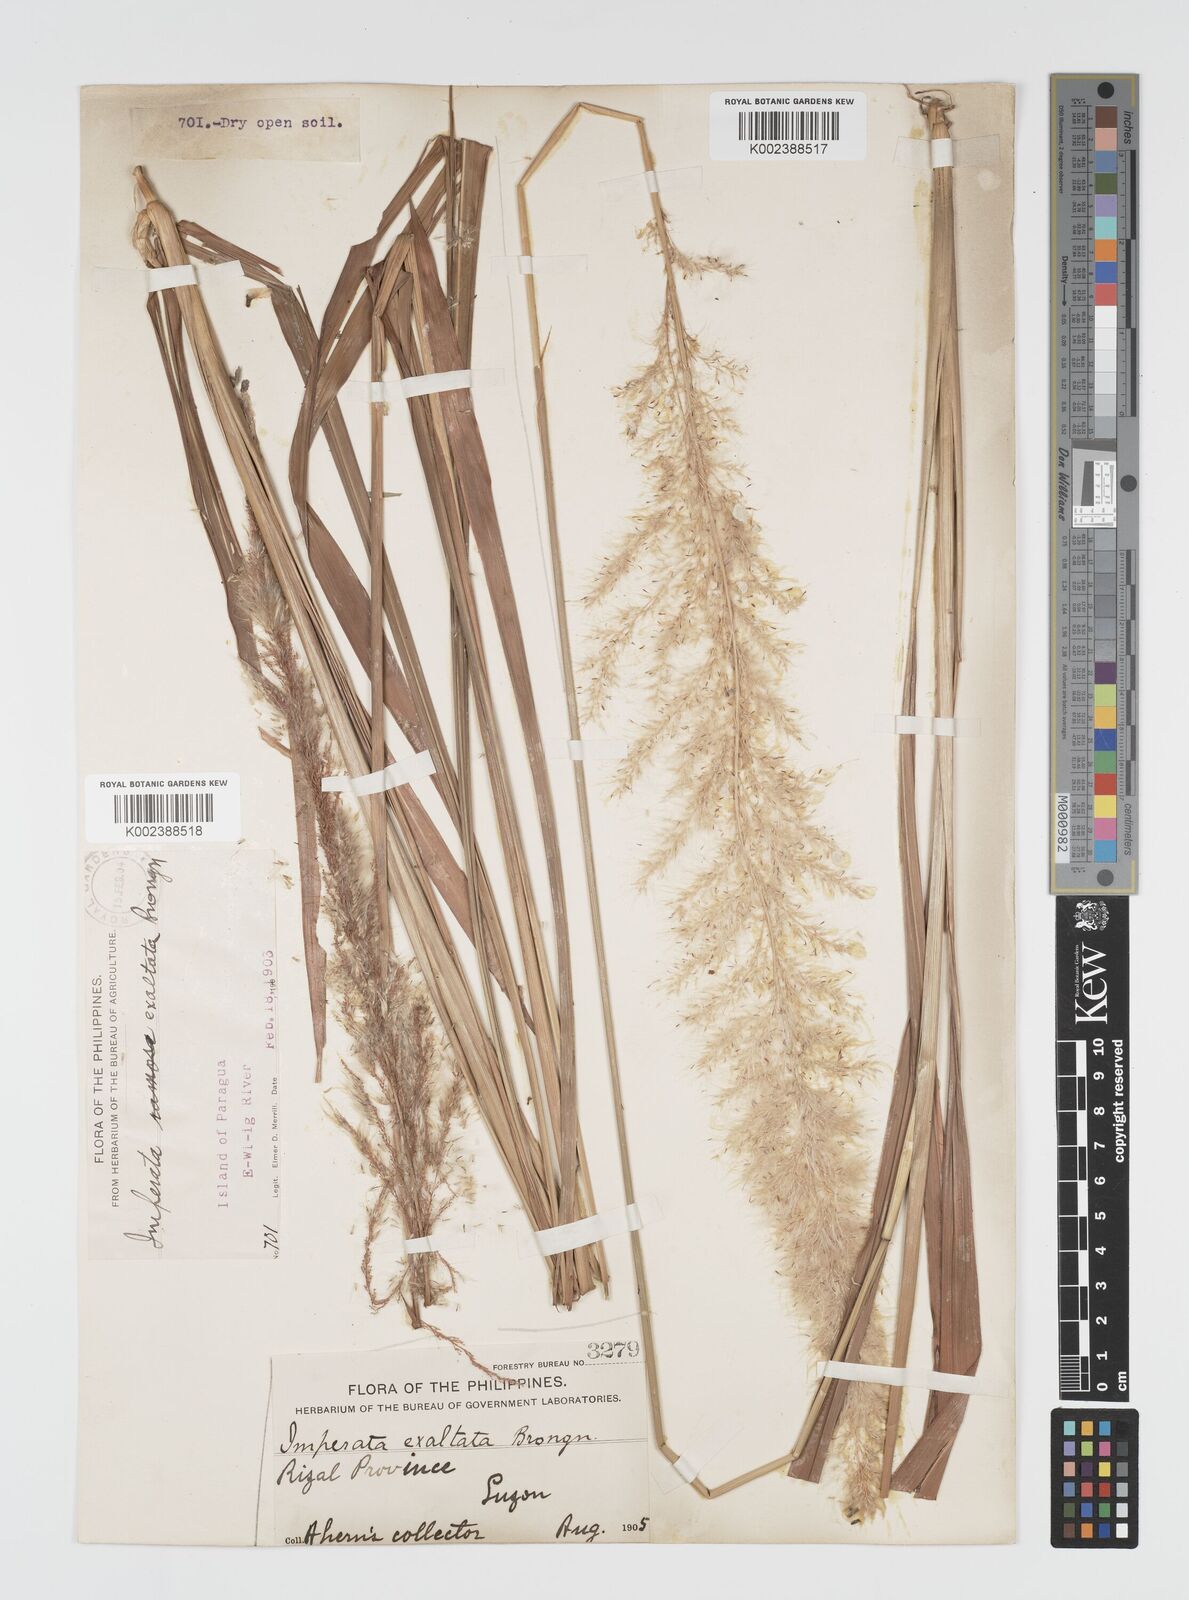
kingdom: Plantae
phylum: Tracheophyta
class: Liliopsida
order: Poales
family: Poaceae
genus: Imperata
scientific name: Imperata conferta
